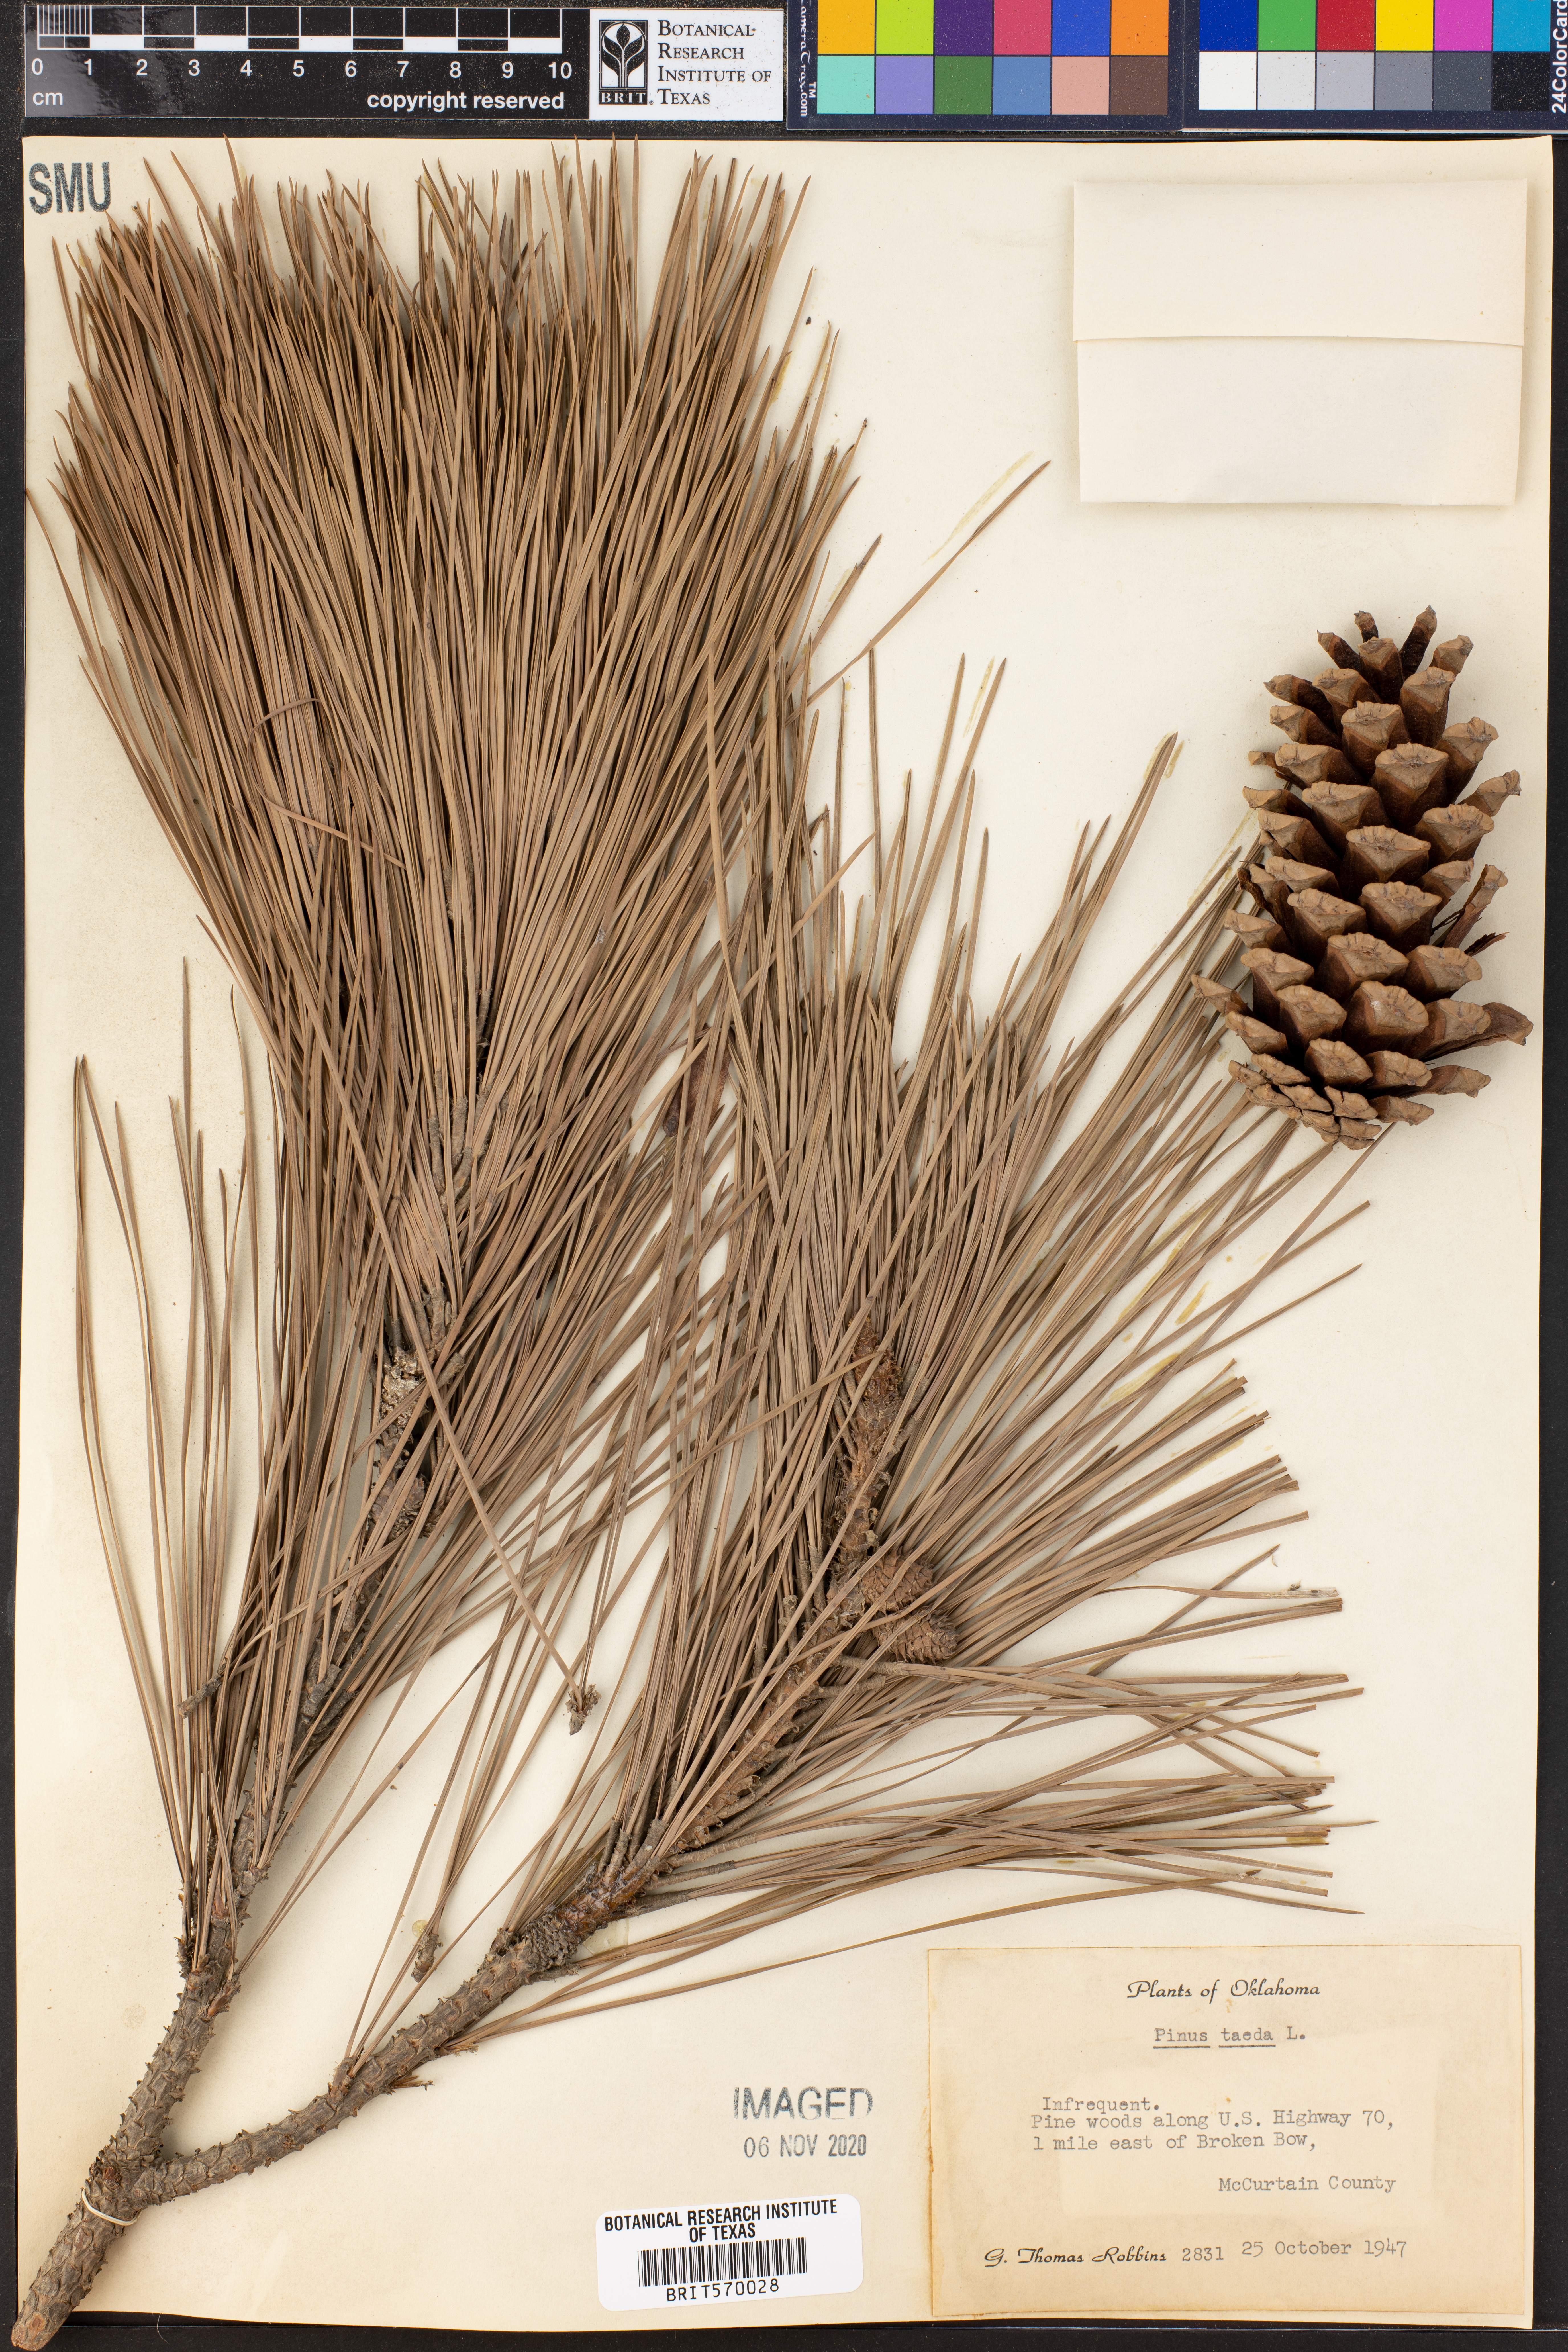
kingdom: Plantae
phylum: Tracheophyta
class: Pinopsida
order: Pinales
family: Pinaceae
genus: Pinus
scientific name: Pinus taeda
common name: Loblolly pine
